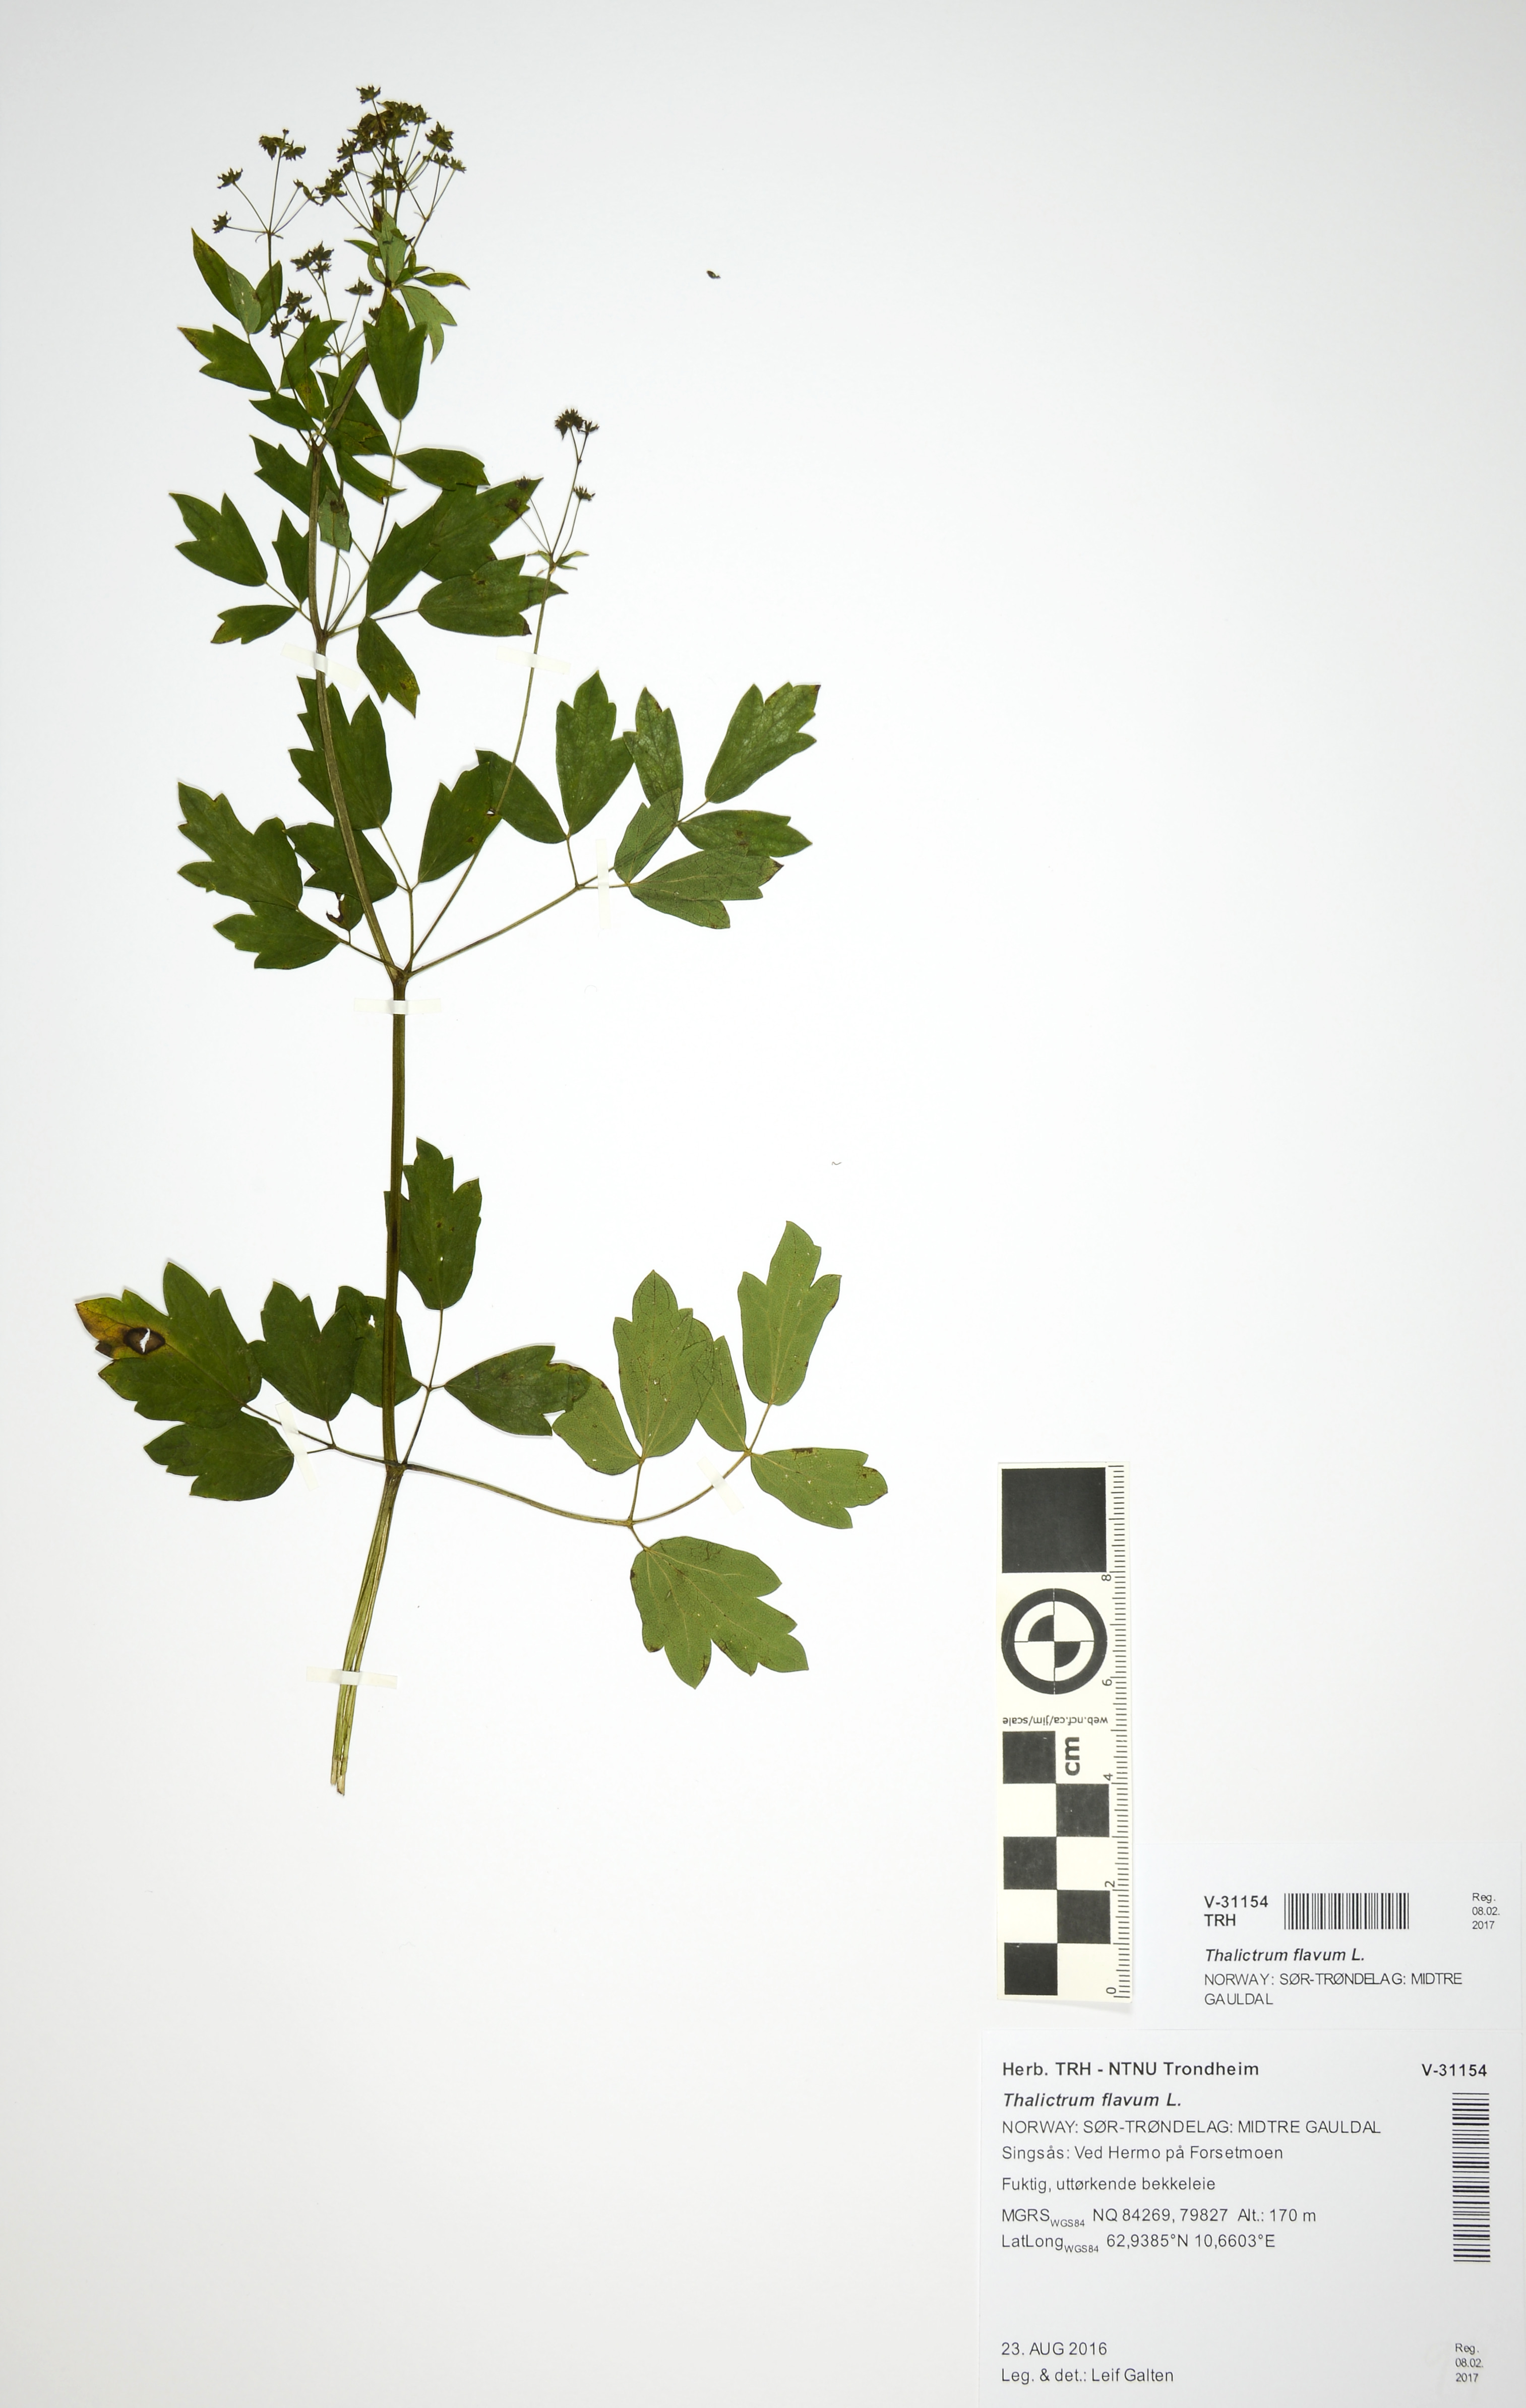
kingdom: Plantae
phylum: Tracheophyta
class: Magnoliopsida
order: Ranunculales
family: Ranunculaceae
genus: Thalictrum
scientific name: Thalictrum flavum
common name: Common meadow-rue
